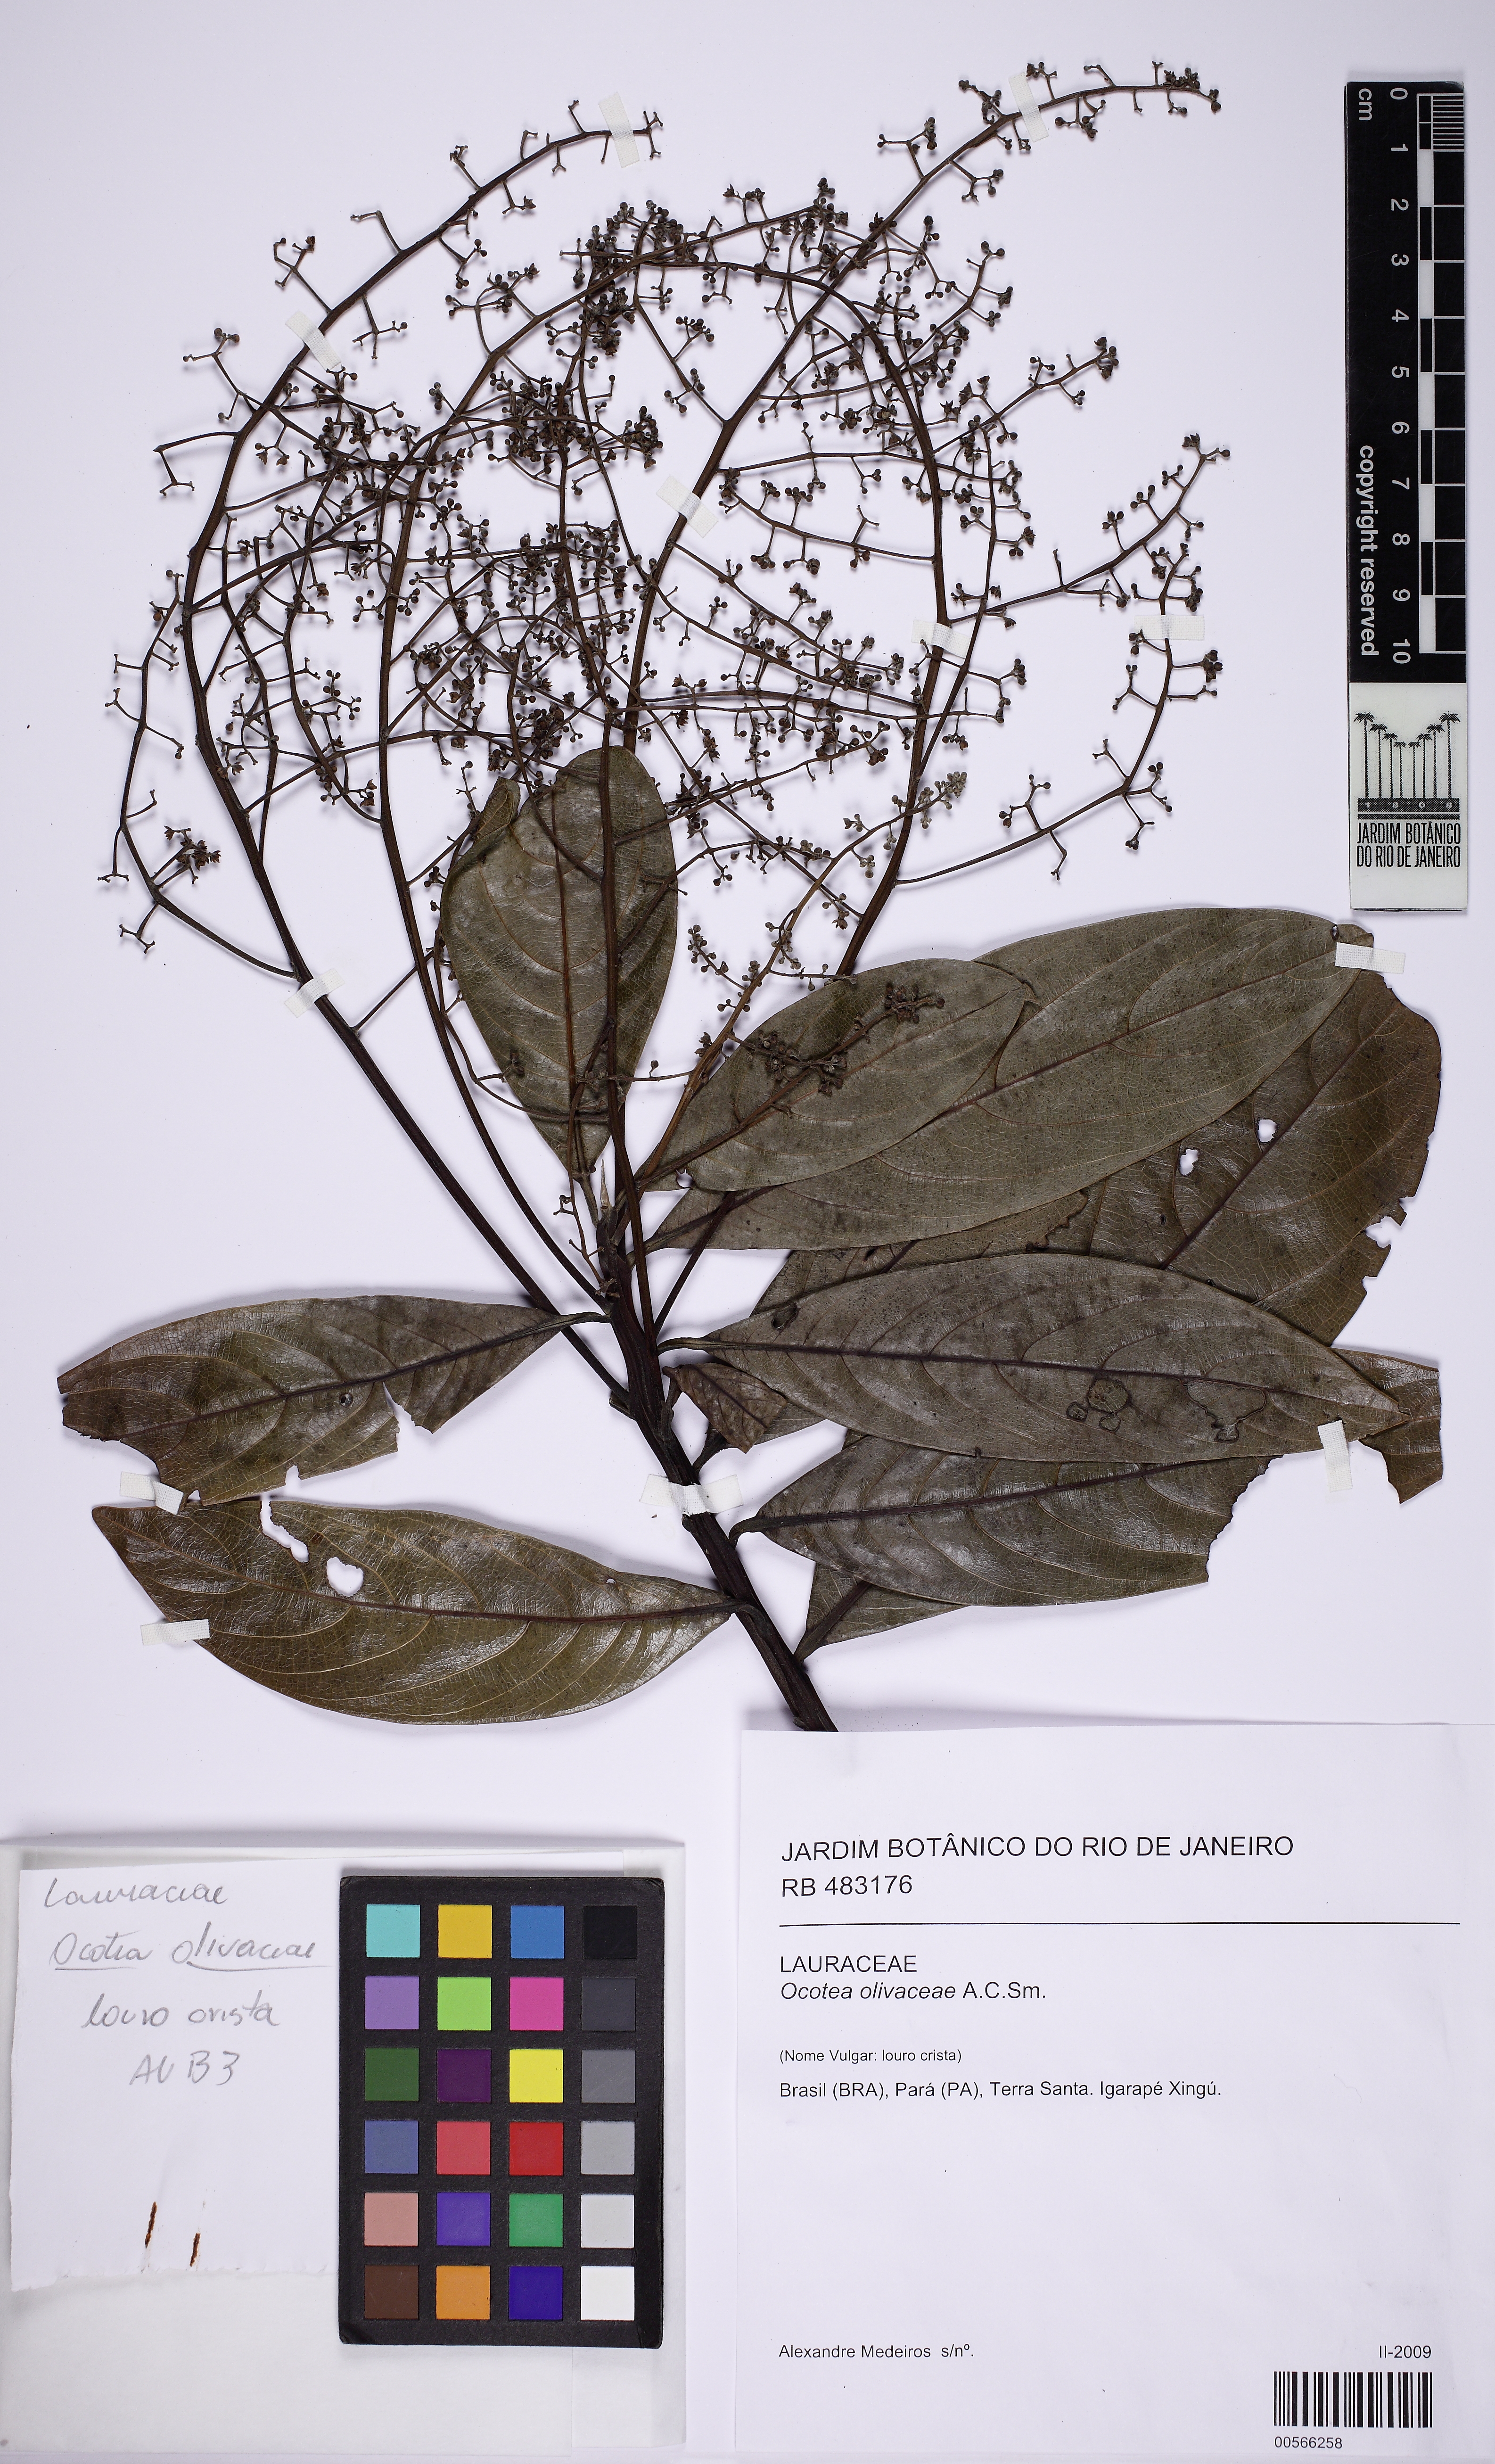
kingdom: Plantae
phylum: Tracheophyta
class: Magnoliopsida
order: Laurales
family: Lauraceae
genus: Ocotea
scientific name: Ocotea olivacea
